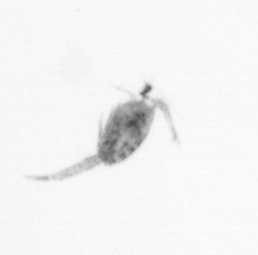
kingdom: Animalia
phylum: Arthropoda
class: Copepoda
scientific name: Copepoda
